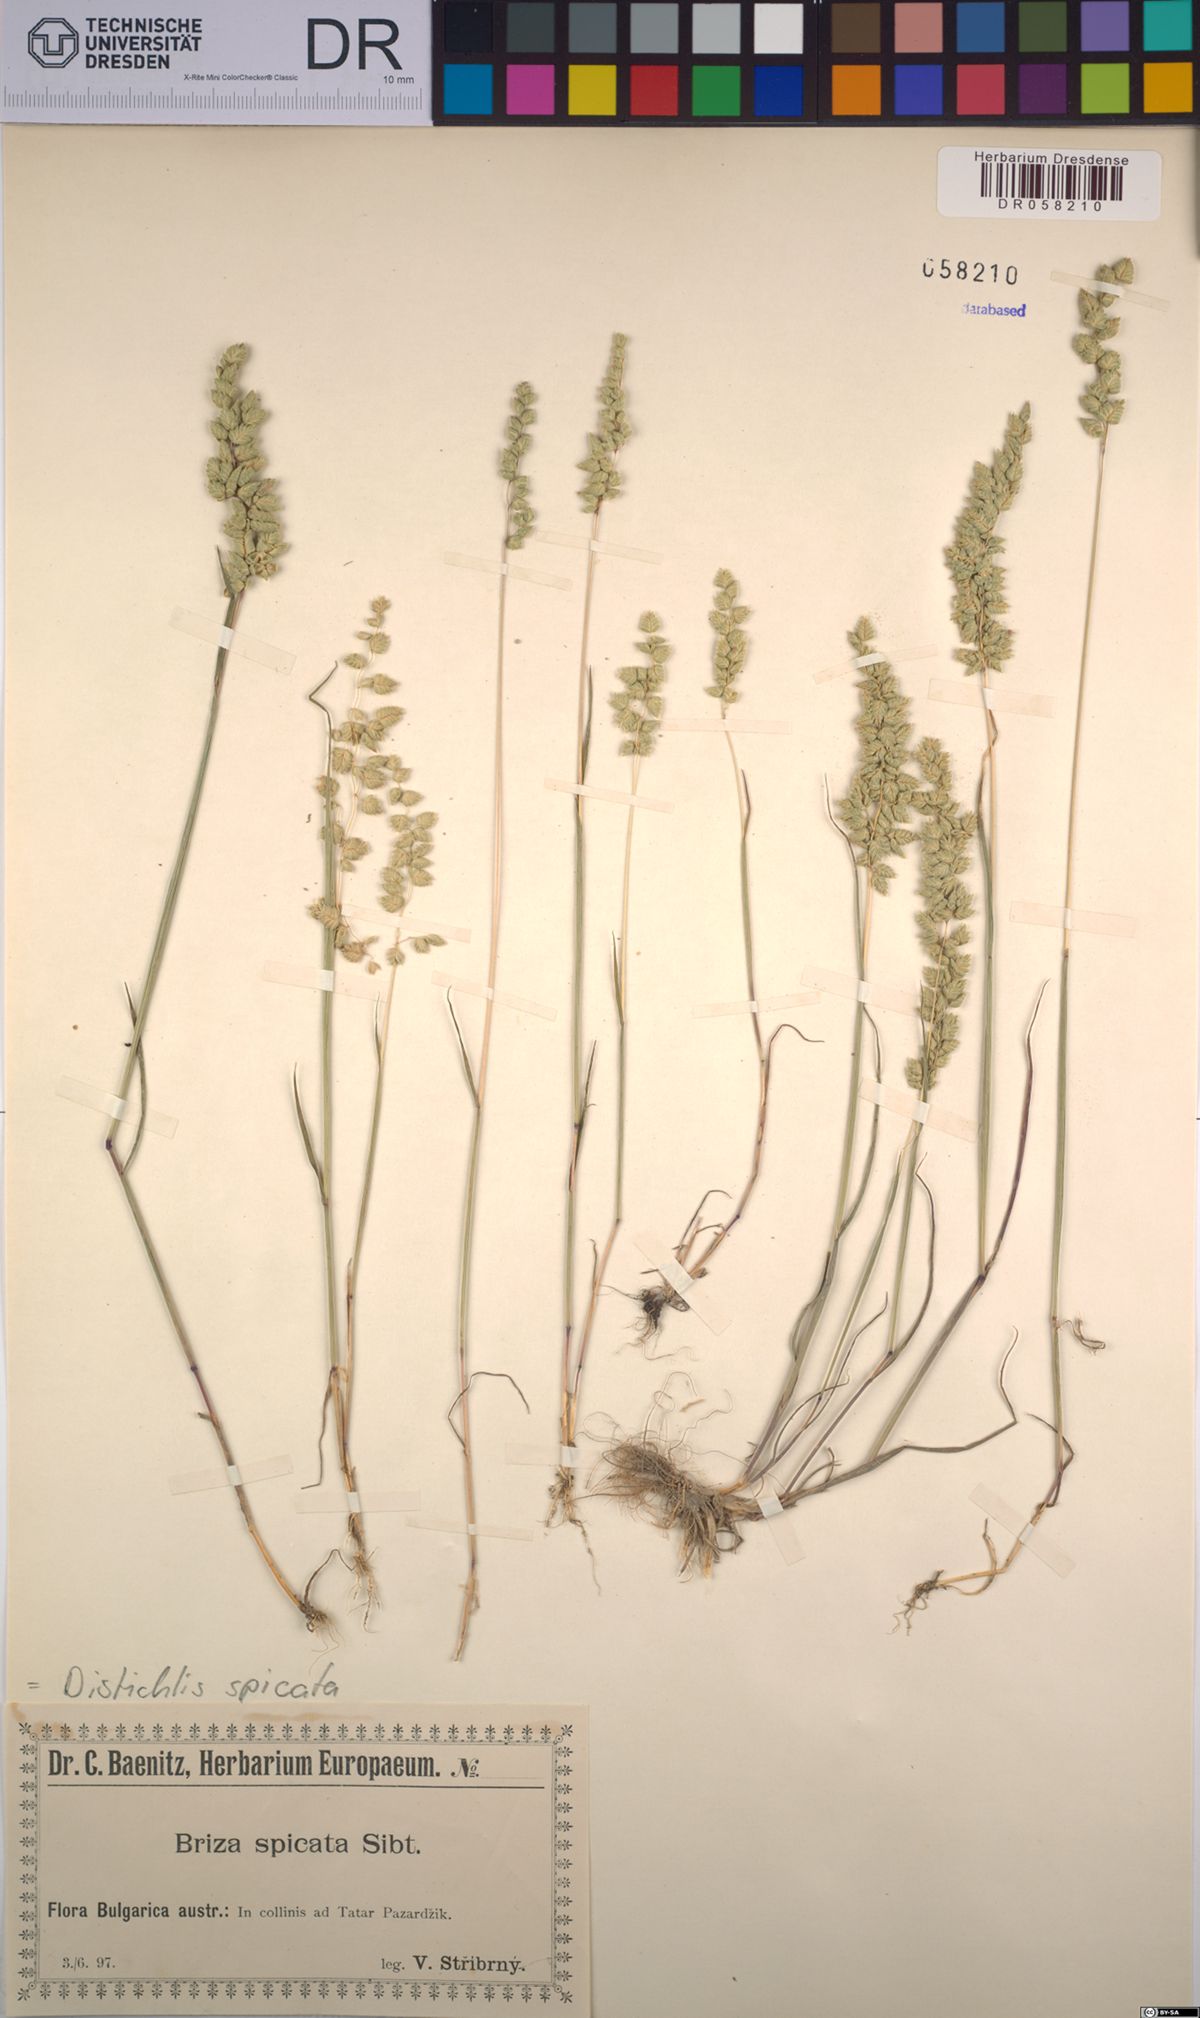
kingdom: Plantae
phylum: Tracheophyta
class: Liliopsida
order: Poales
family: Poaceae
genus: Distichlis
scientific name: Distichlis spicata
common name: Saltgrass
